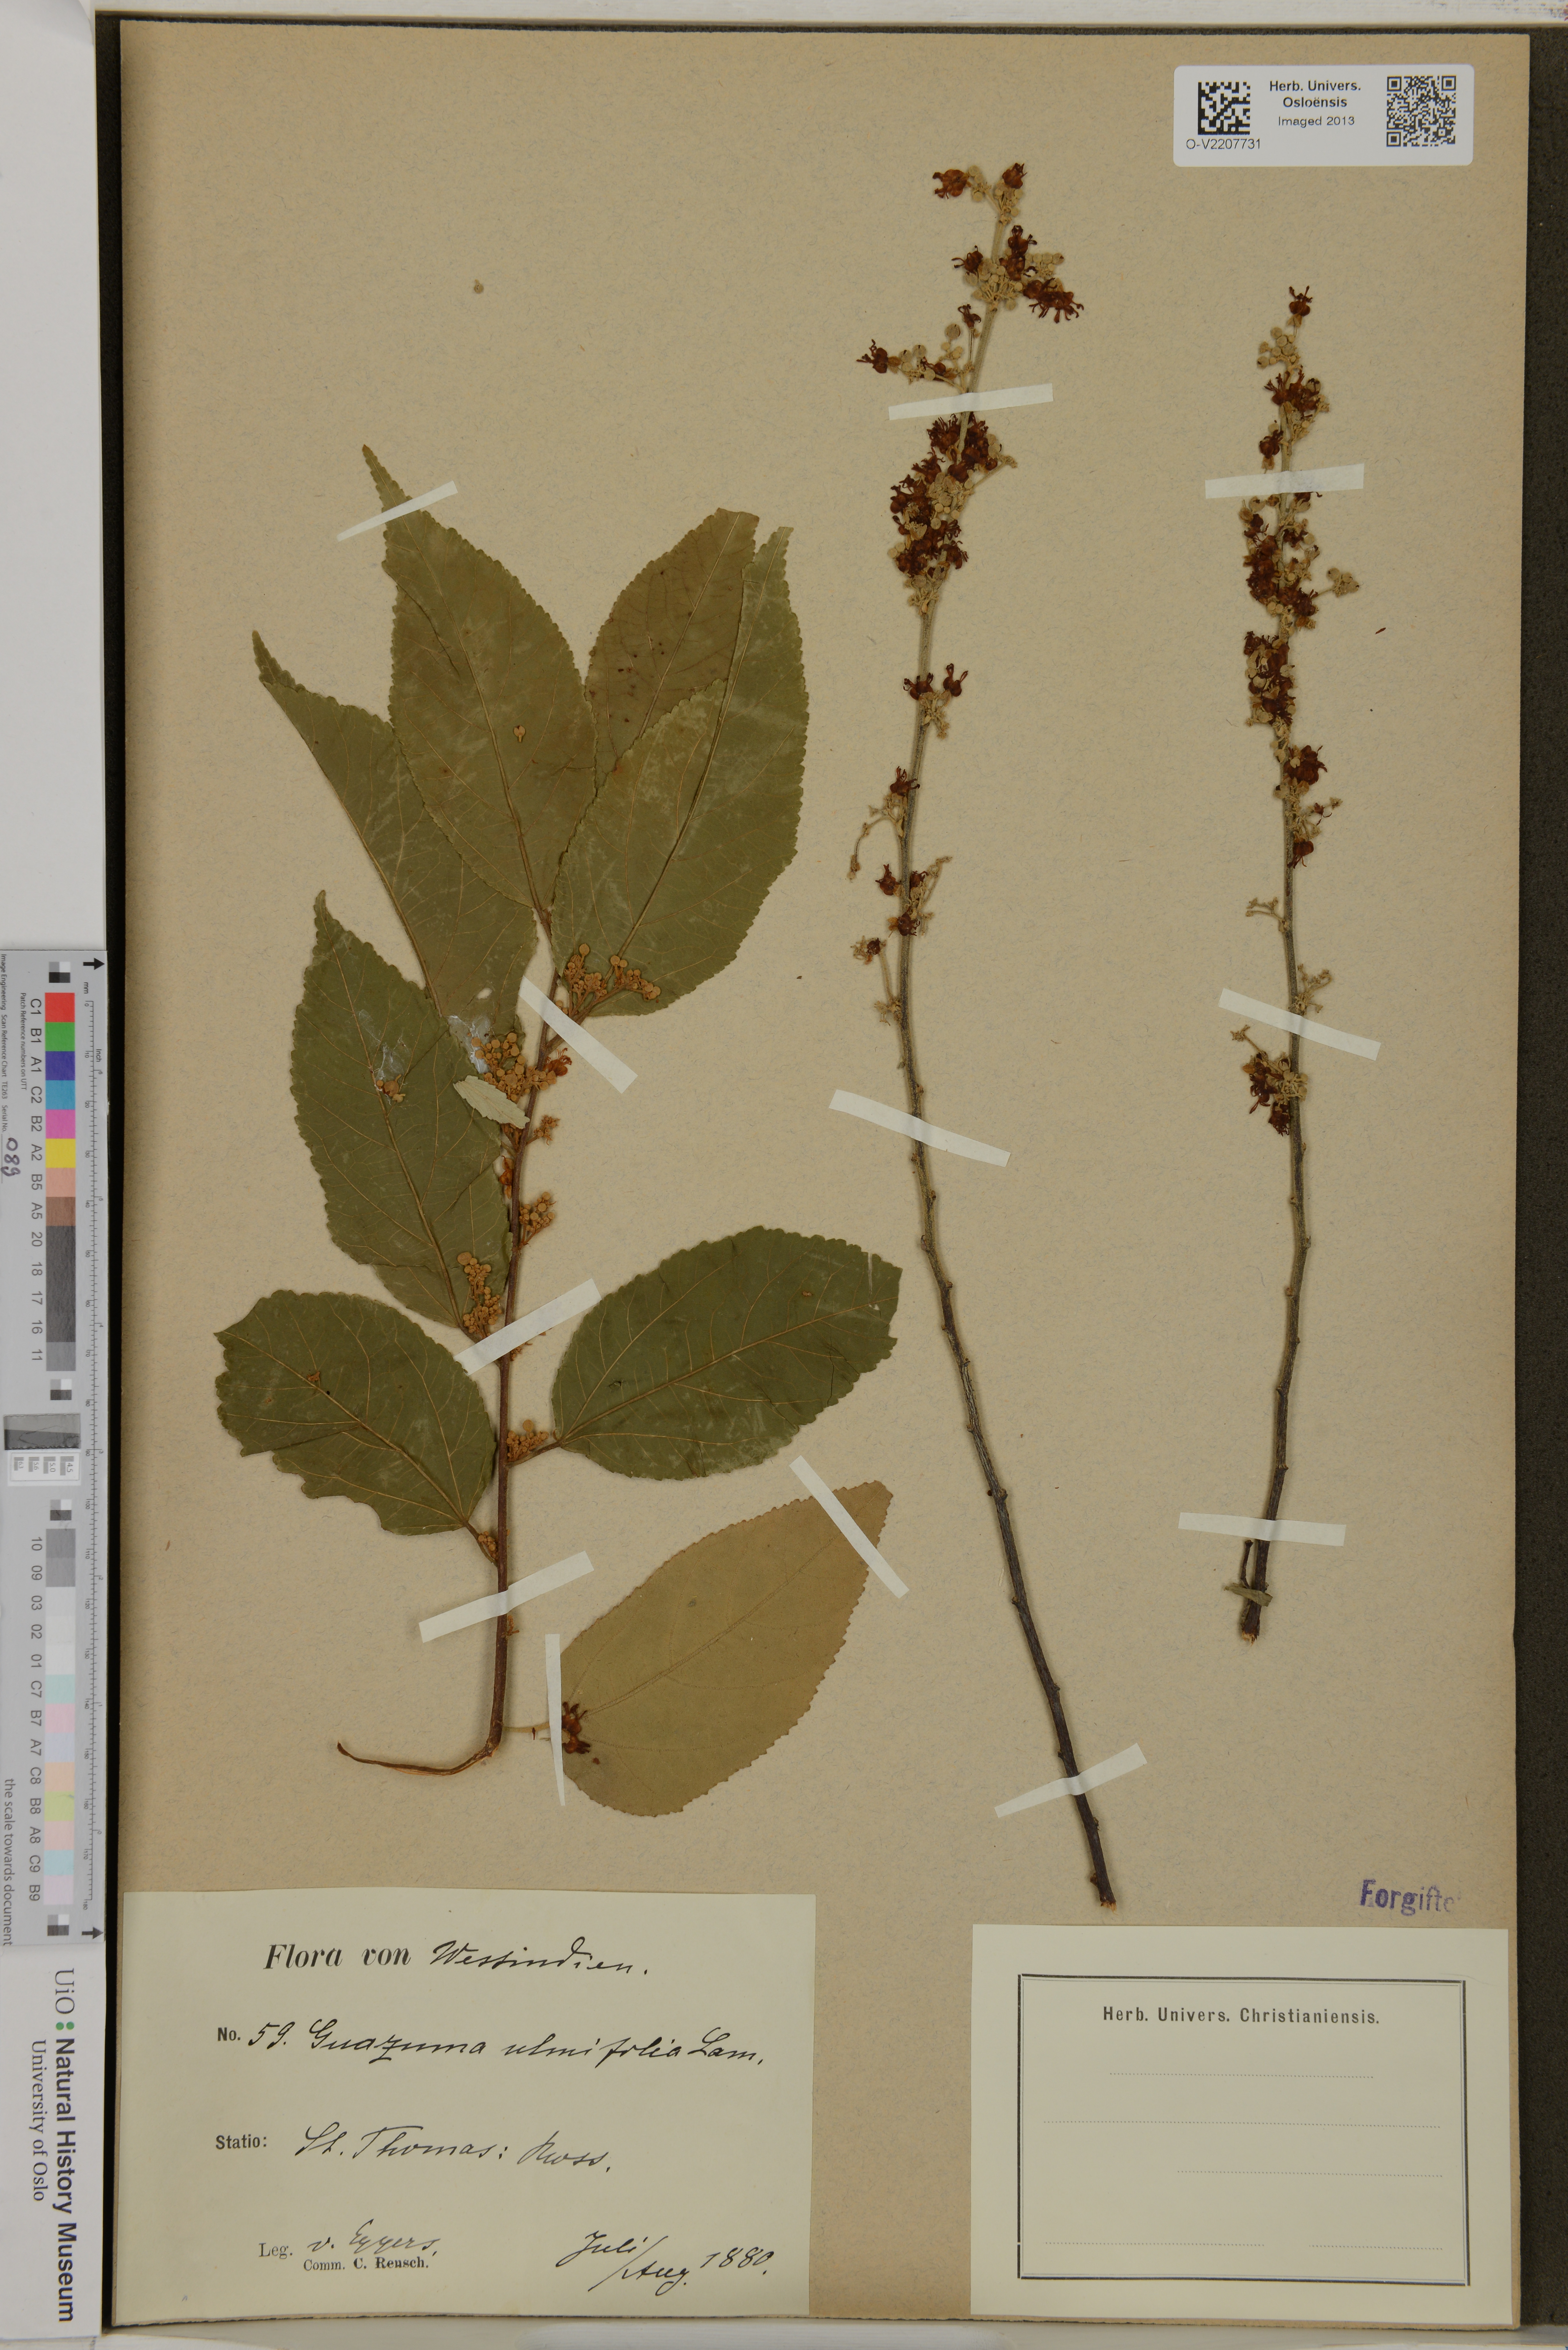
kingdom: Plantae
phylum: Tracheophyta
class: Magnoliopsida
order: Malvales
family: Malvaceae
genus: Guazuma
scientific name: Guazuma ulmifolia
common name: Bastard-cedar
